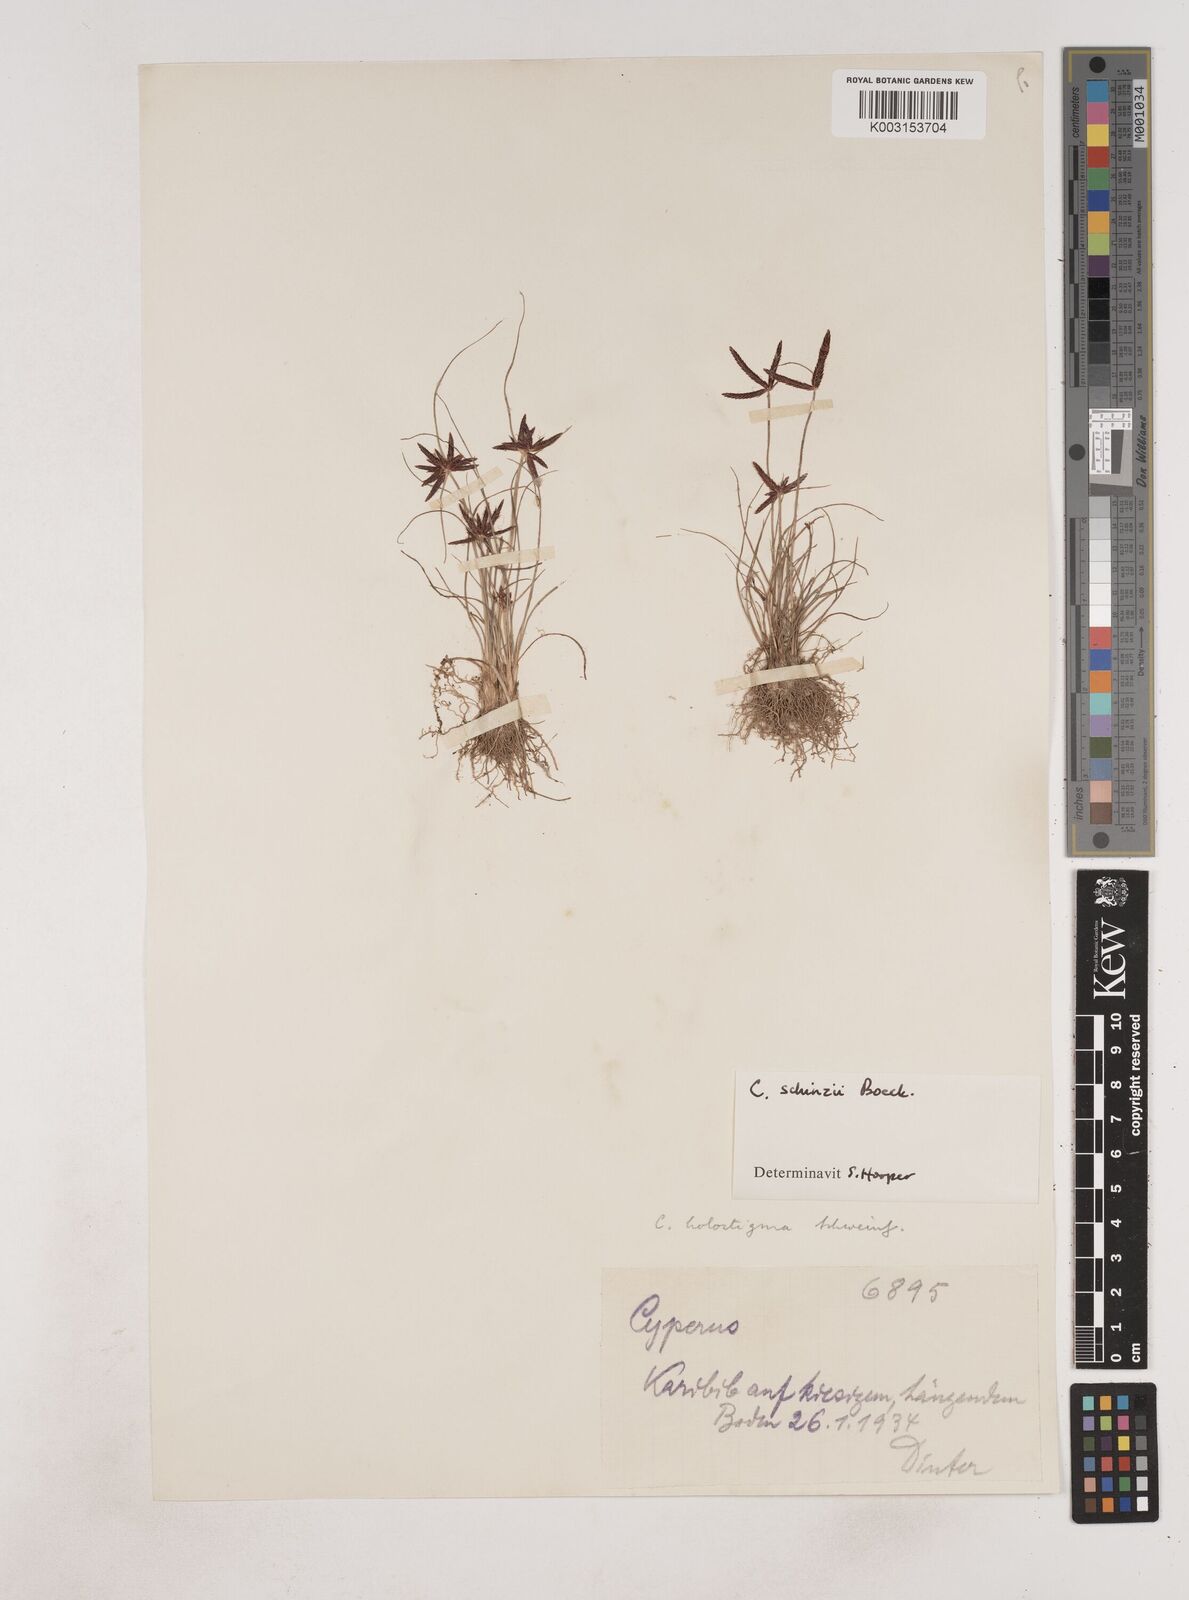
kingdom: Plantae
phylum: Tracheophyta
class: Liliopsida
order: Poales
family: Cyperaceae
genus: Cyperus
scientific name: Cyperus semitrifidus
